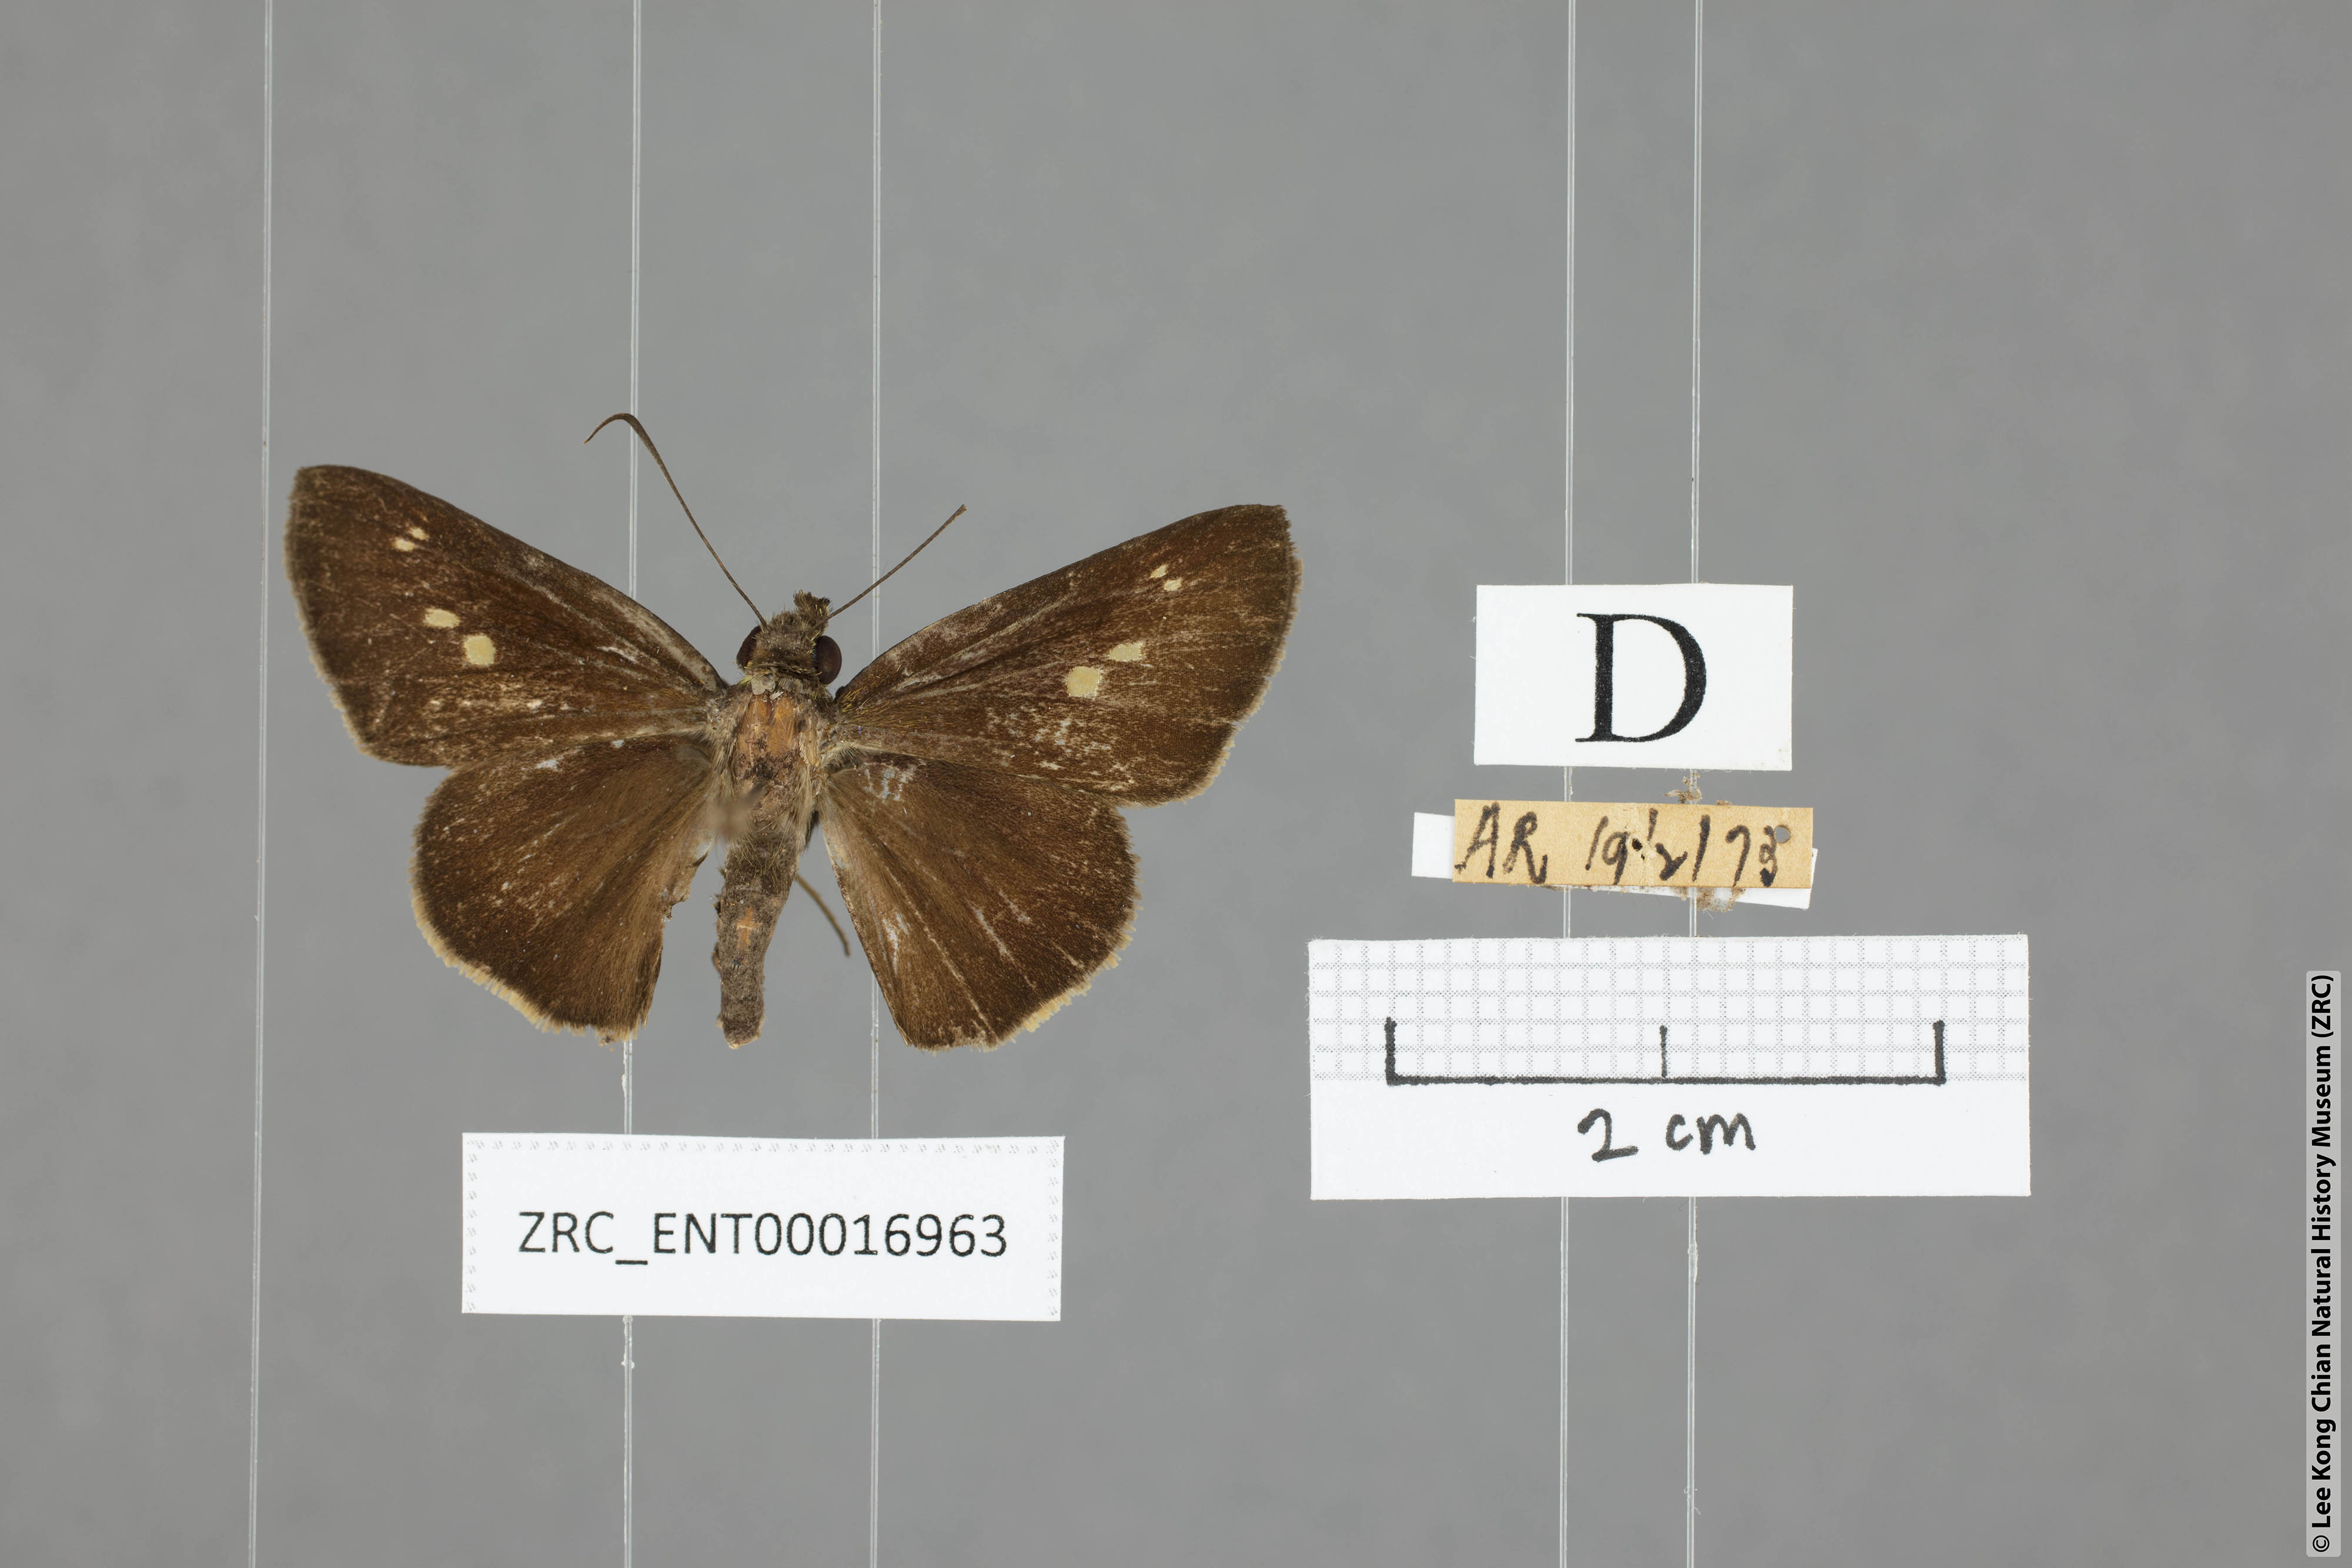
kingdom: Animalia
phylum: Arthropoda
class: Insecta
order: Lepidoptera
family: Hesperiidae
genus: Ge
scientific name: Ge
